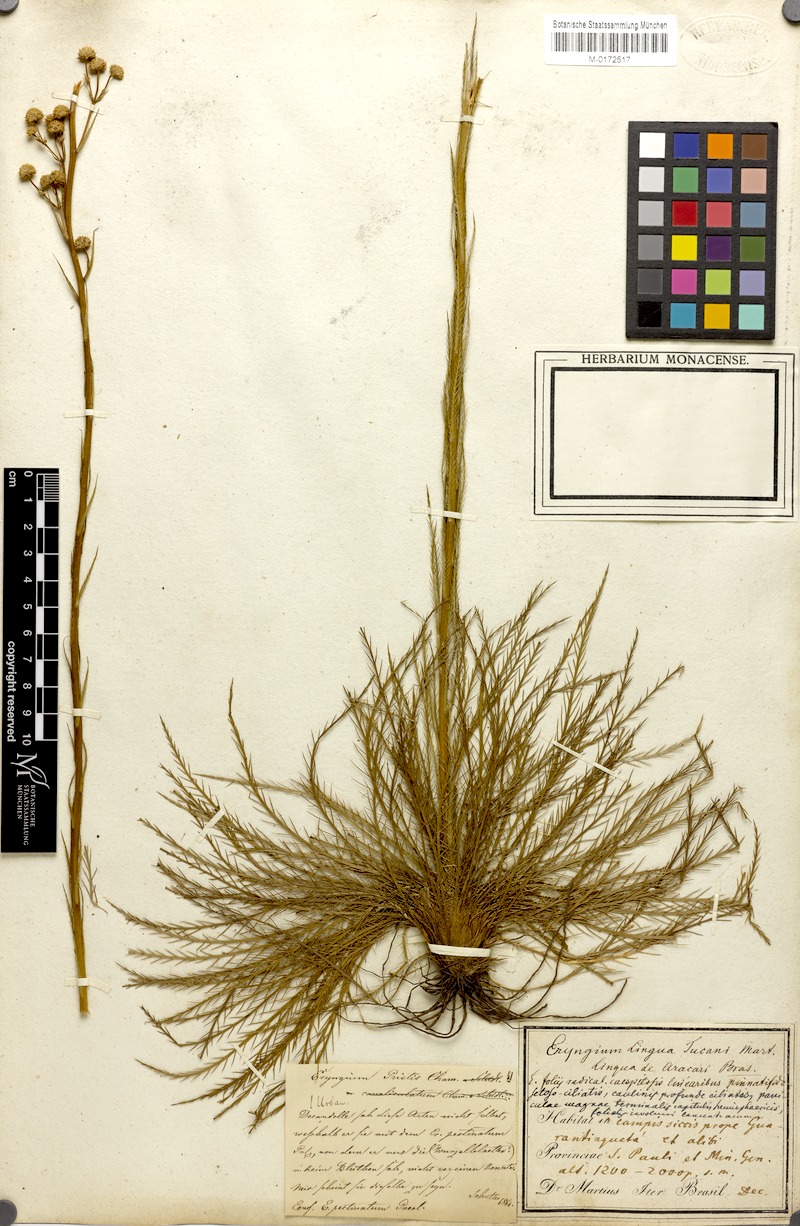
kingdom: Plantae
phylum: Tracheophyta
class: Magnoliopsida
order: Apiales
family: Apiaceae
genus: Eryngium
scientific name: Eryngium pristis
